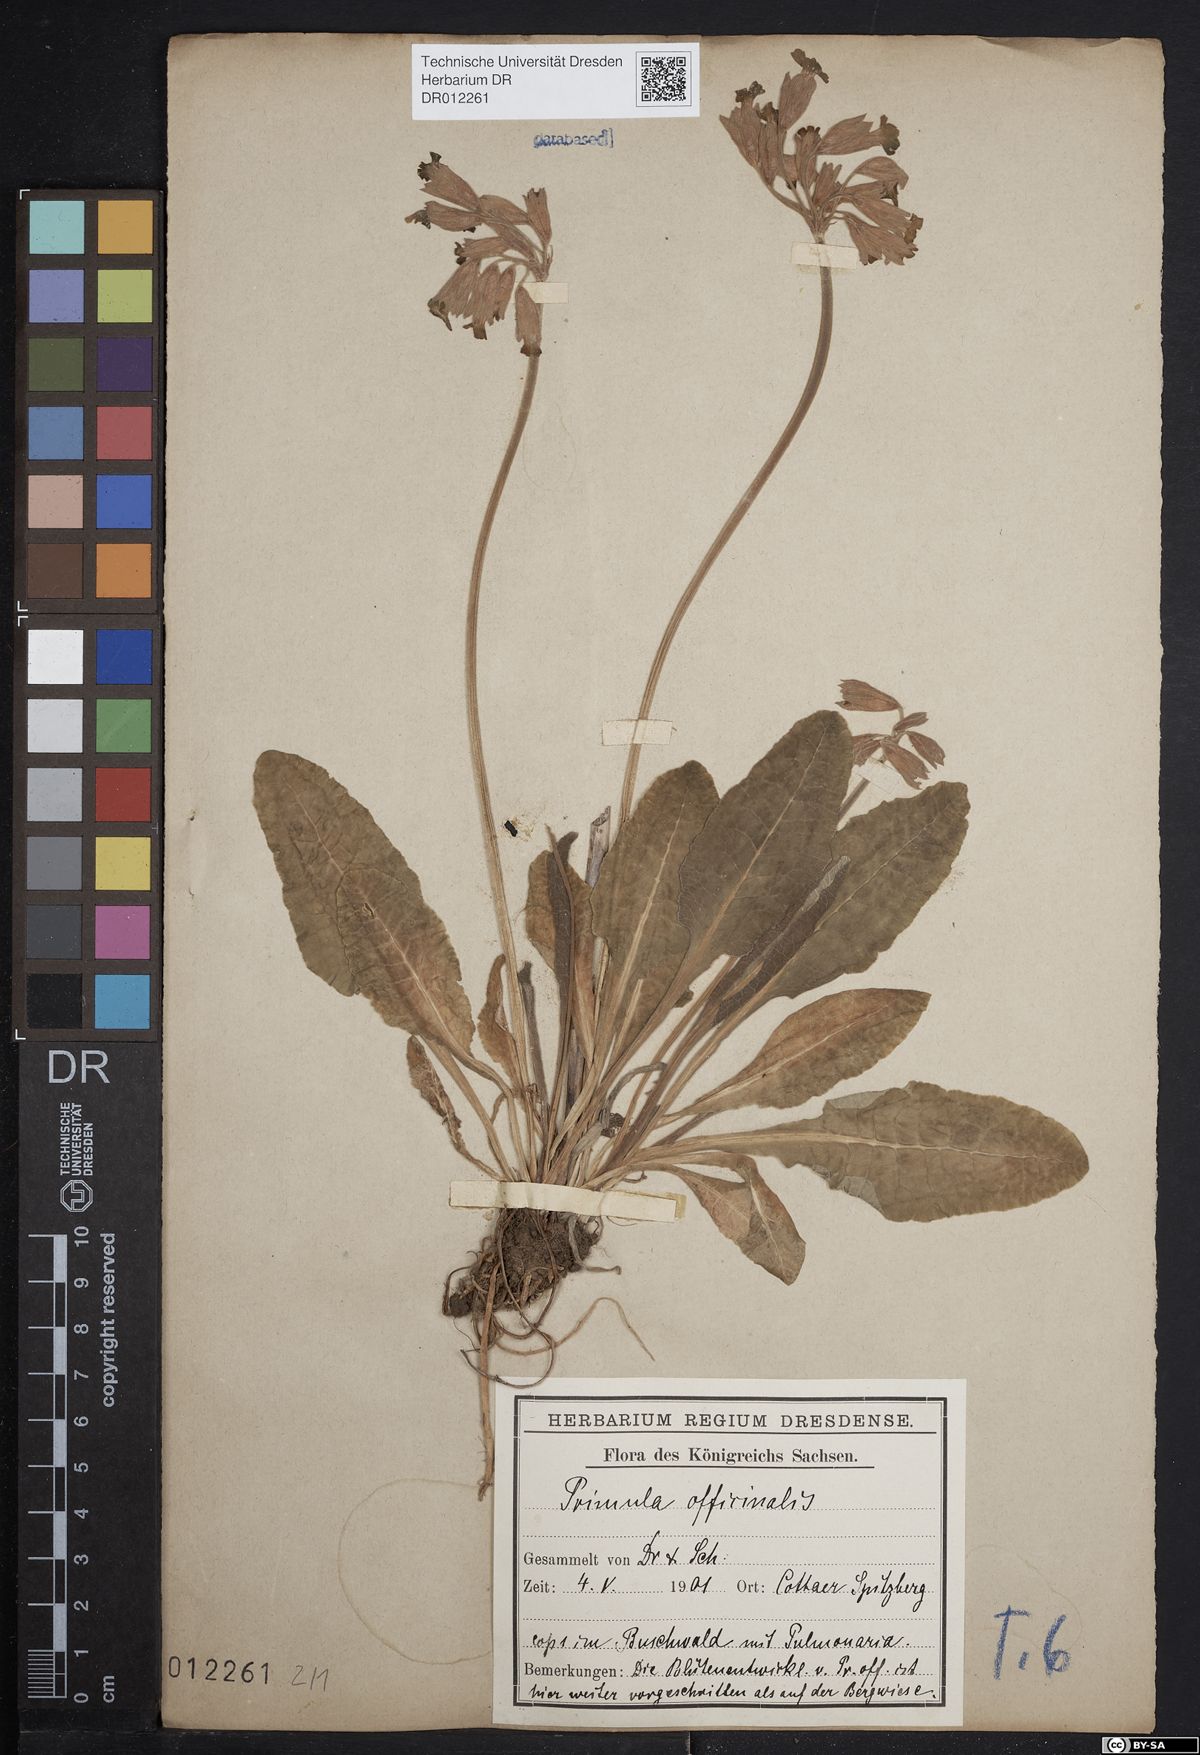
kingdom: Plantae
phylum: Tracheophyta
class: Magnoliopsida
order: Ericales
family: Primulaceae
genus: Primula
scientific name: Primula veris
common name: Cowslip
